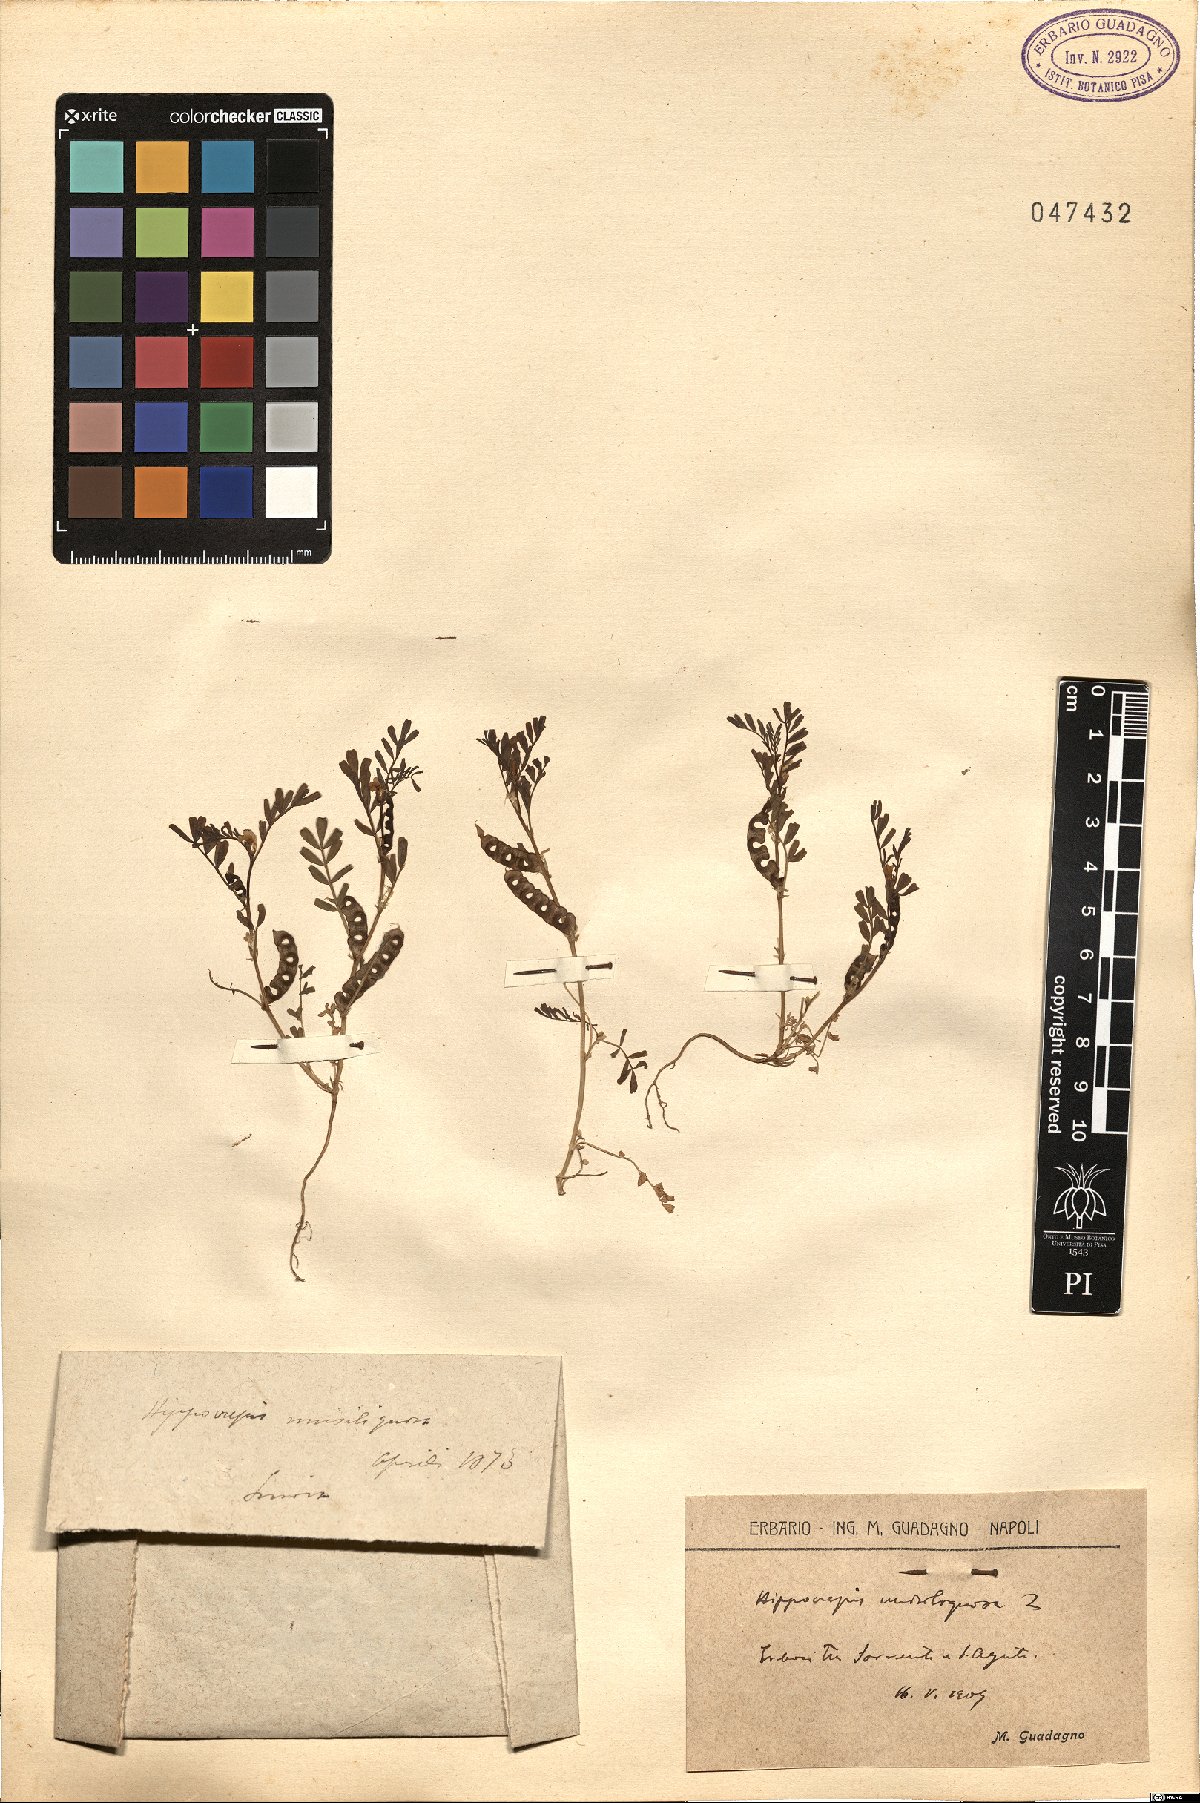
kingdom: Plantae
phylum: Tracheophyta
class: Magnoliopsida
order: Fabales
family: Fabaceae
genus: Hippocrepis
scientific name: Hippocrepis unisiliquosa
